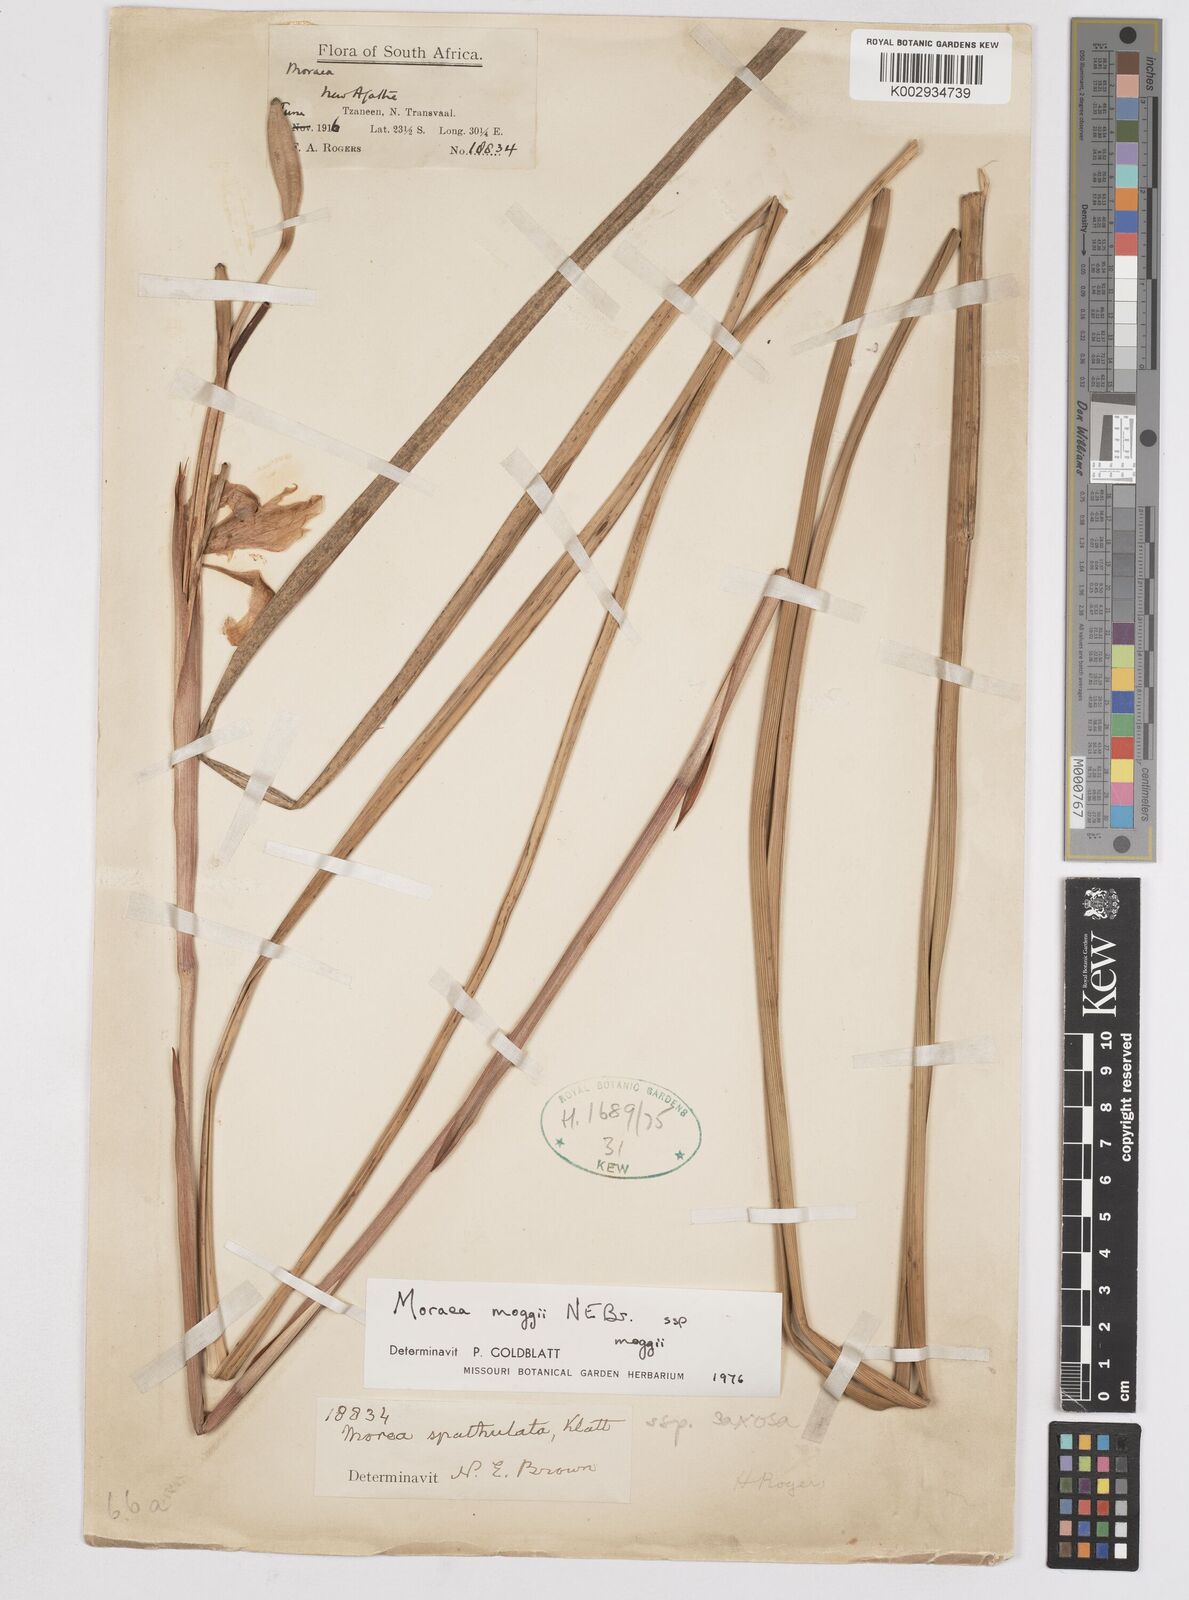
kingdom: Plantae
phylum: Tracheophyta
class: Liliopsida
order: Asparagales
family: Iridaceae
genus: Moraea
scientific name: Moraea moggii
